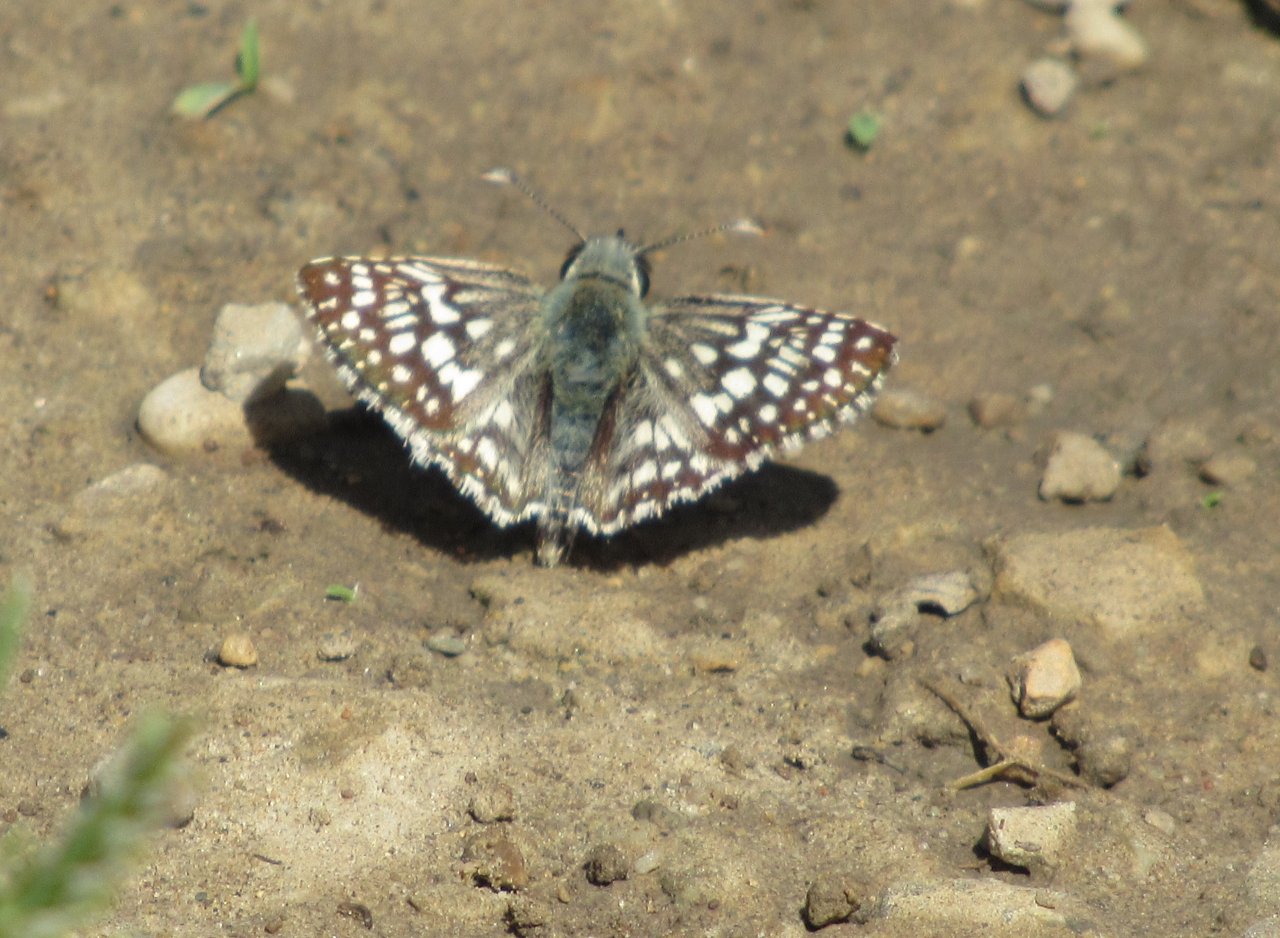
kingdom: Animalia
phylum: Arthropoda
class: Insecta
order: Lepidoptera
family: Hesperiidae
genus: Pyrgus
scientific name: Pyrgus communis
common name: Common Checkered-Skipper
